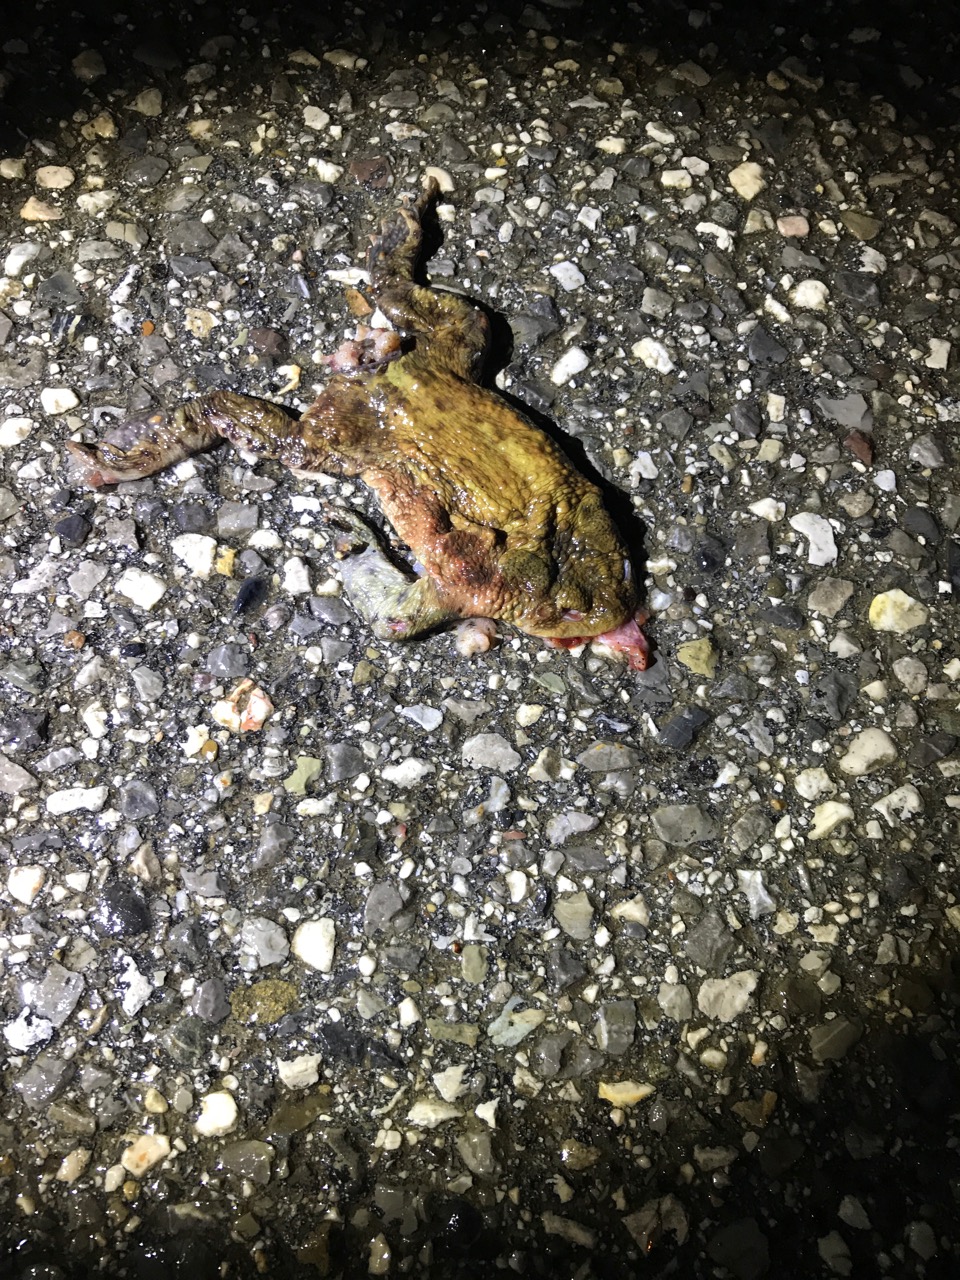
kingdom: Animalia
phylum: Chordata
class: Amphibia
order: Anura
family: Bufonidae
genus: Bufo
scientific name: Bufo bufo
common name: Common toad
